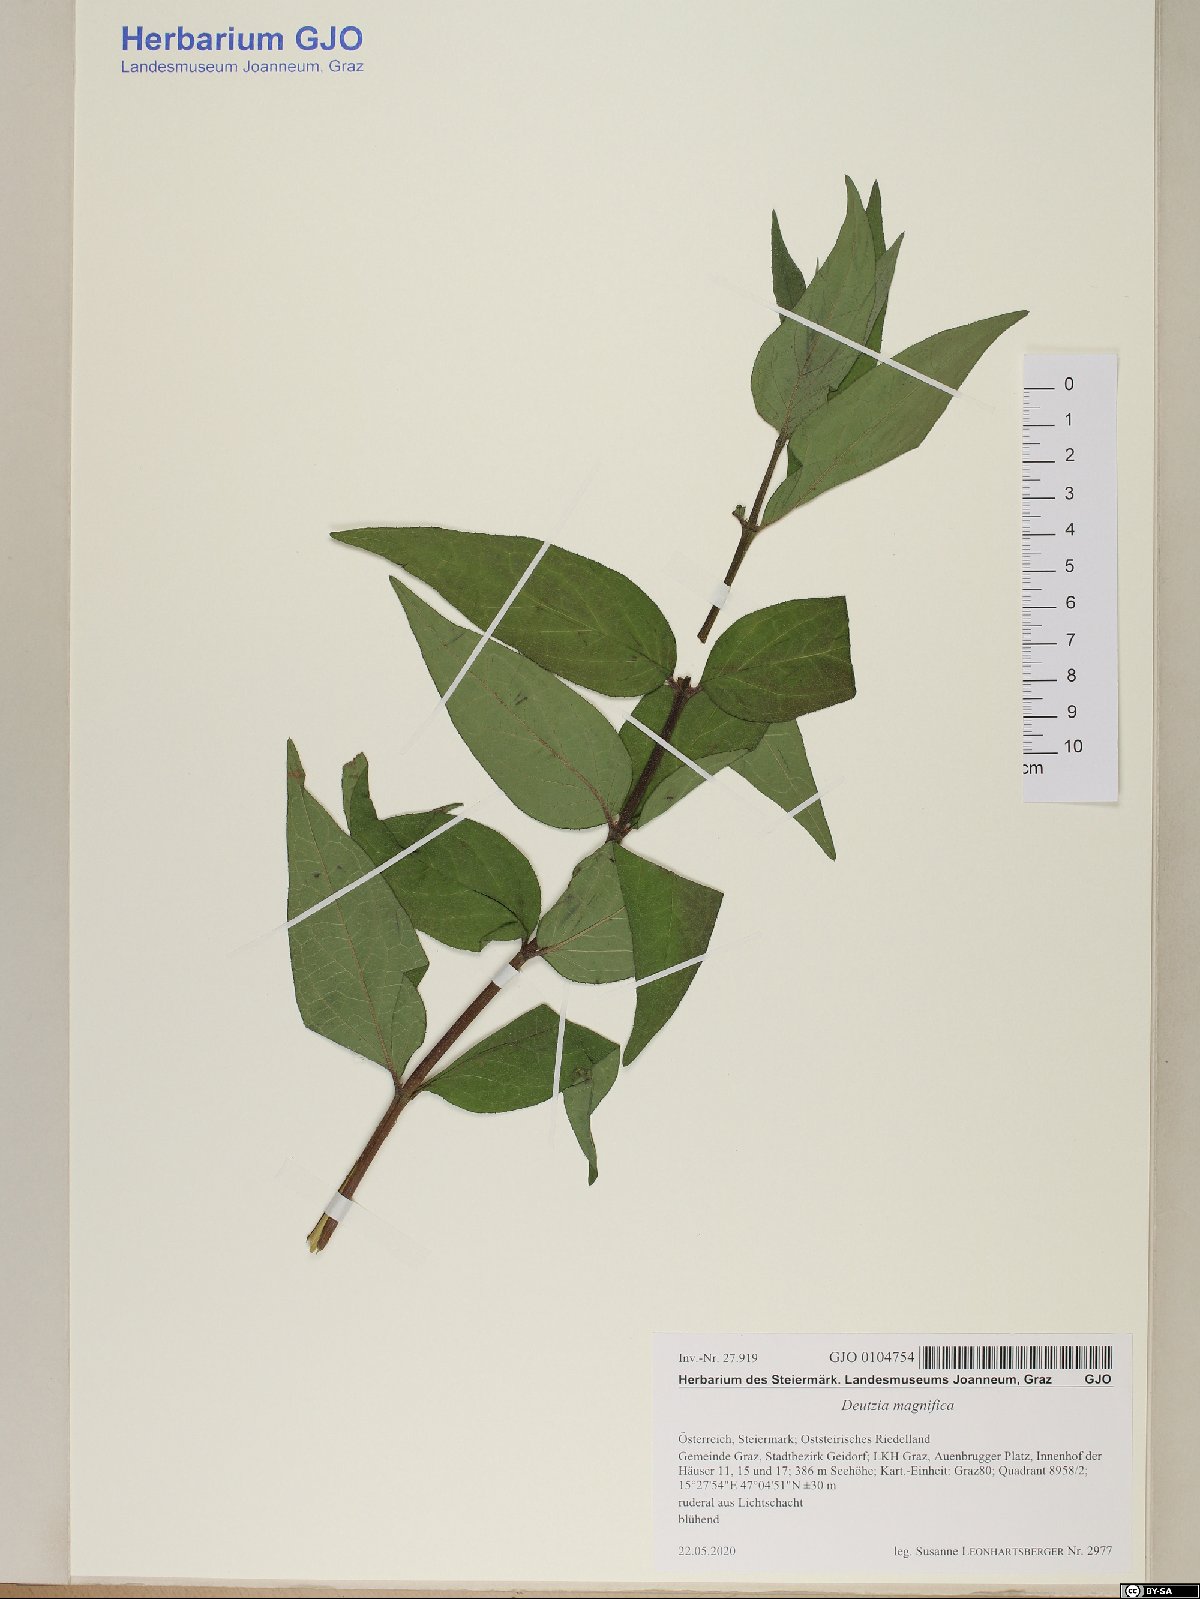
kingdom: Plantae
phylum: Tracheophyta
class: Magnoliopsida
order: Cornales
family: Hydrangeaceae
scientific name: Hydrangeaceae
